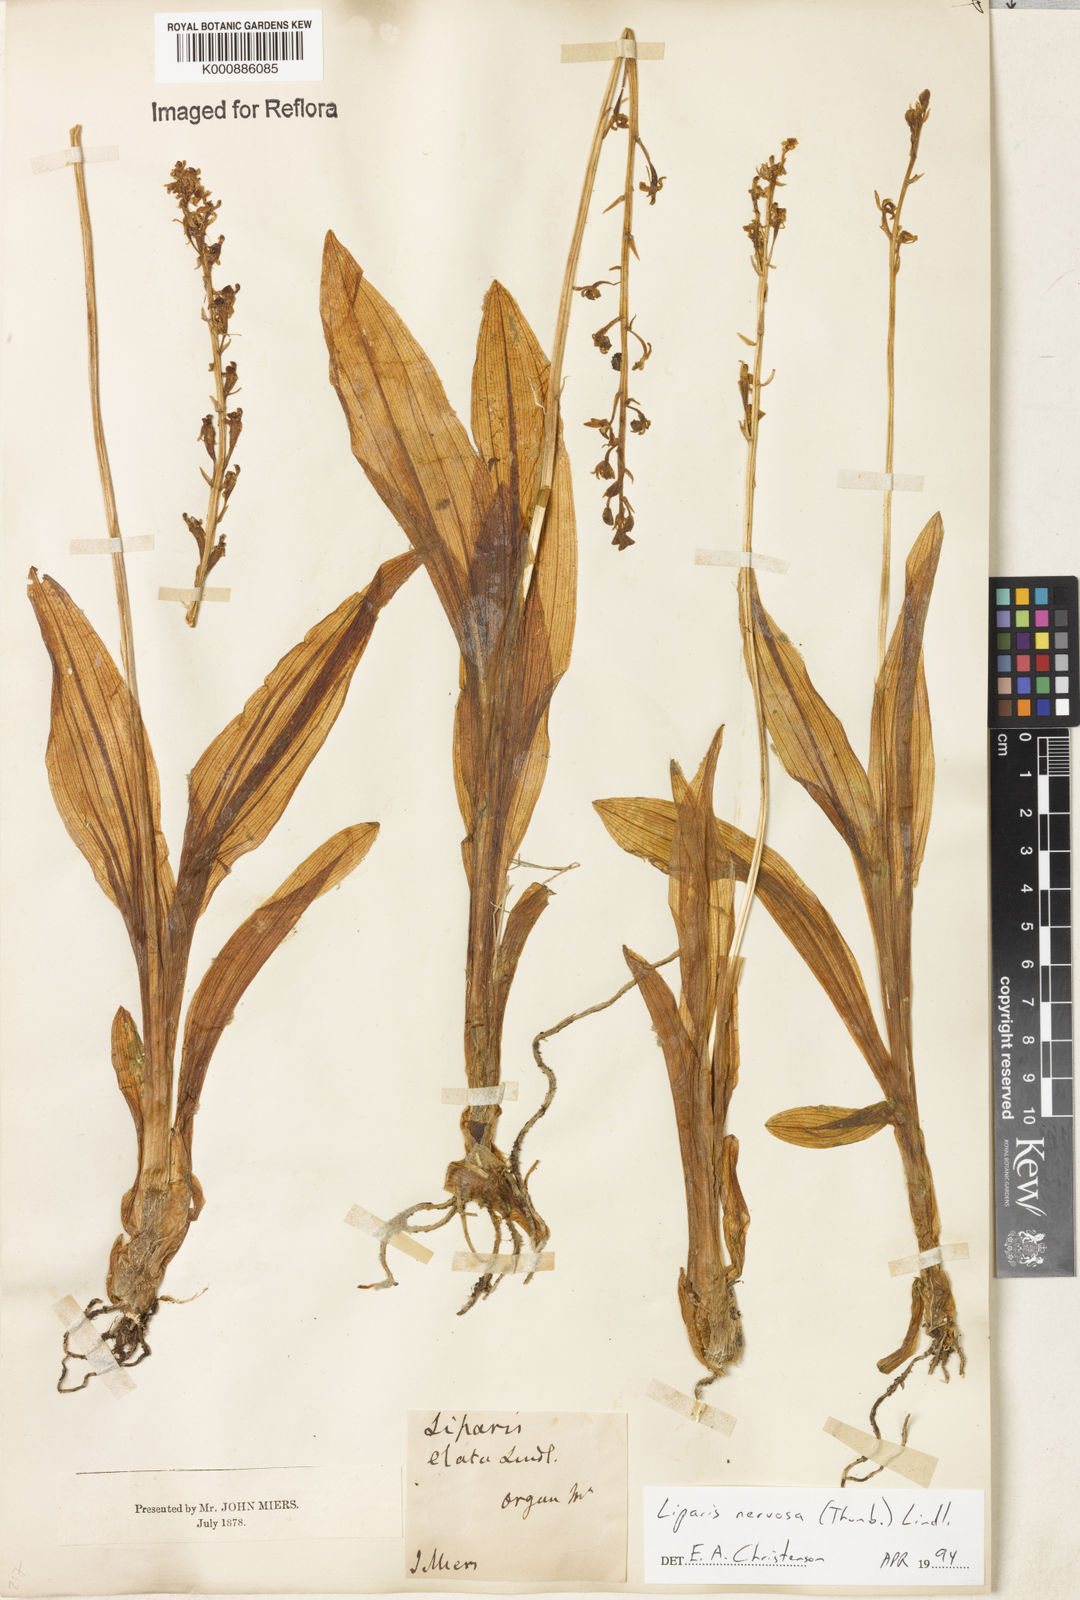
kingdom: Plantae
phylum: Tracheophyta
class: Liliopsida
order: Asparagales
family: Orchidaceae
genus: Liparis
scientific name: Liparis nervosa
